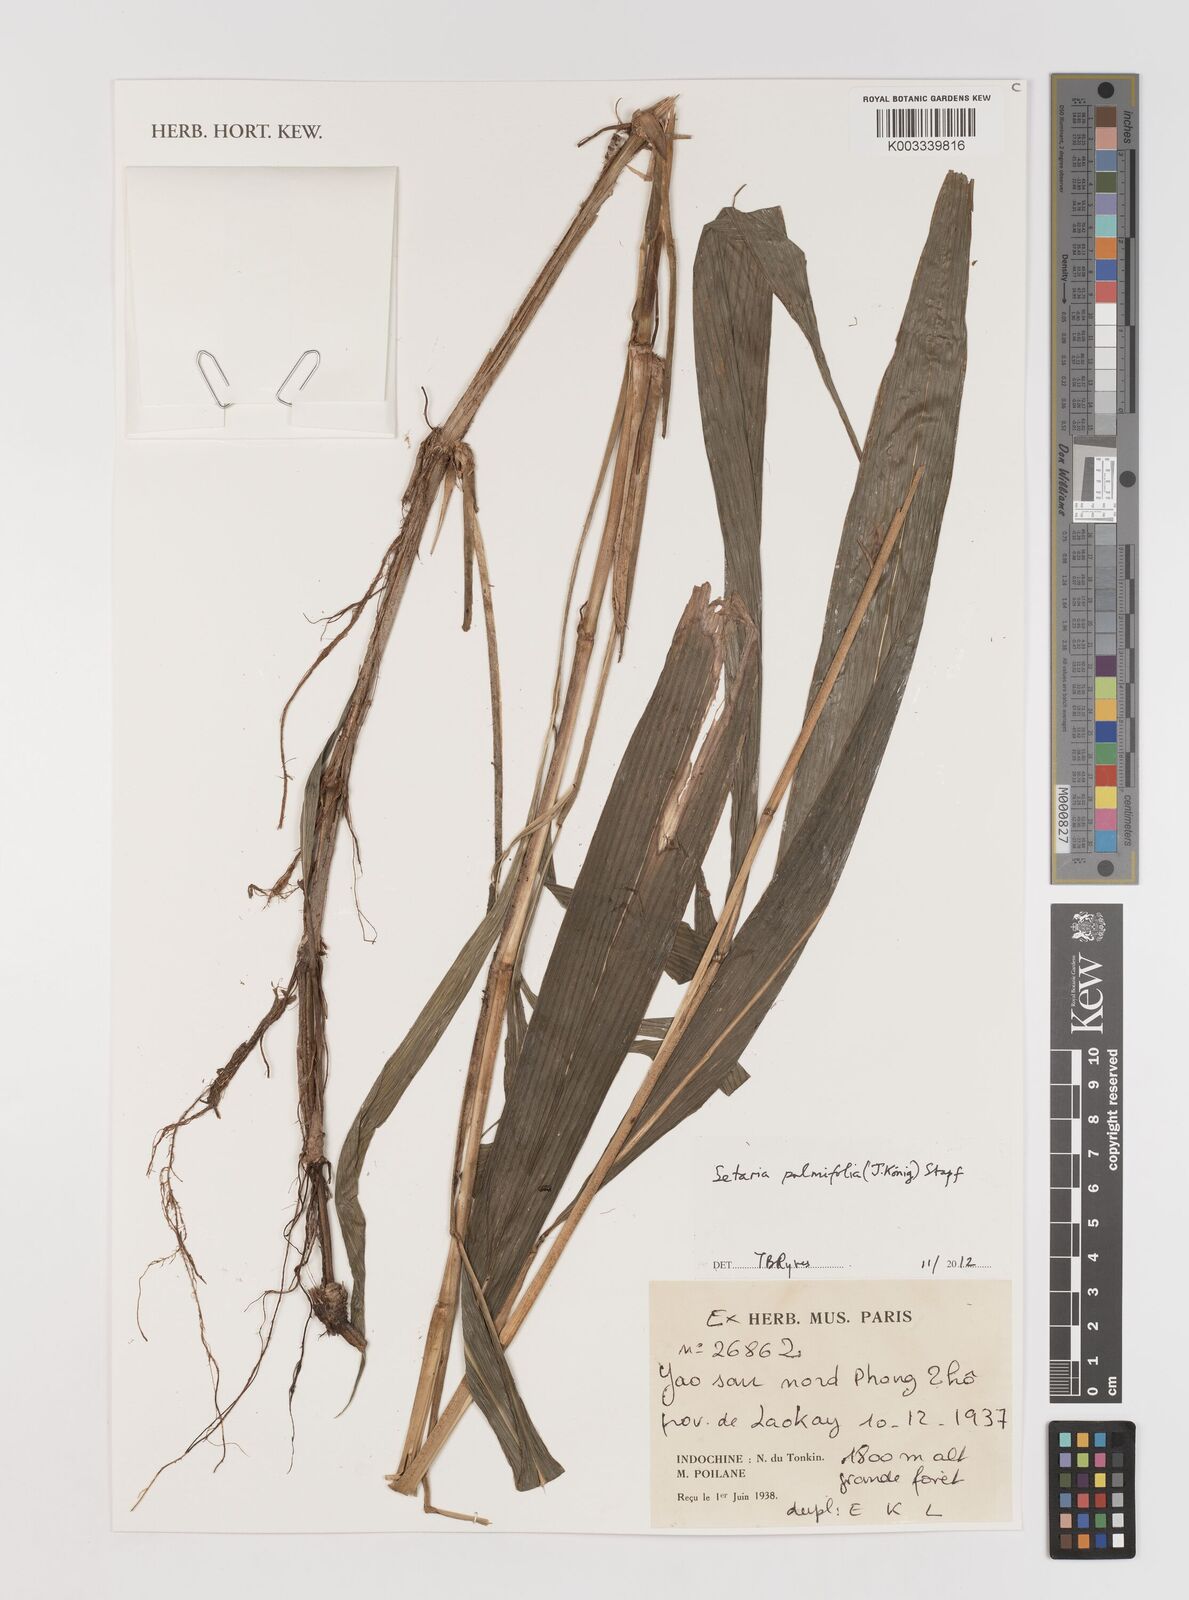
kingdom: Plantae
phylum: Tracheophyta
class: Liliopsida
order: Poales
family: Poaceae
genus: Setaria
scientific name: Setaria palmifolia
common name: Broadleaved bristlegrass
